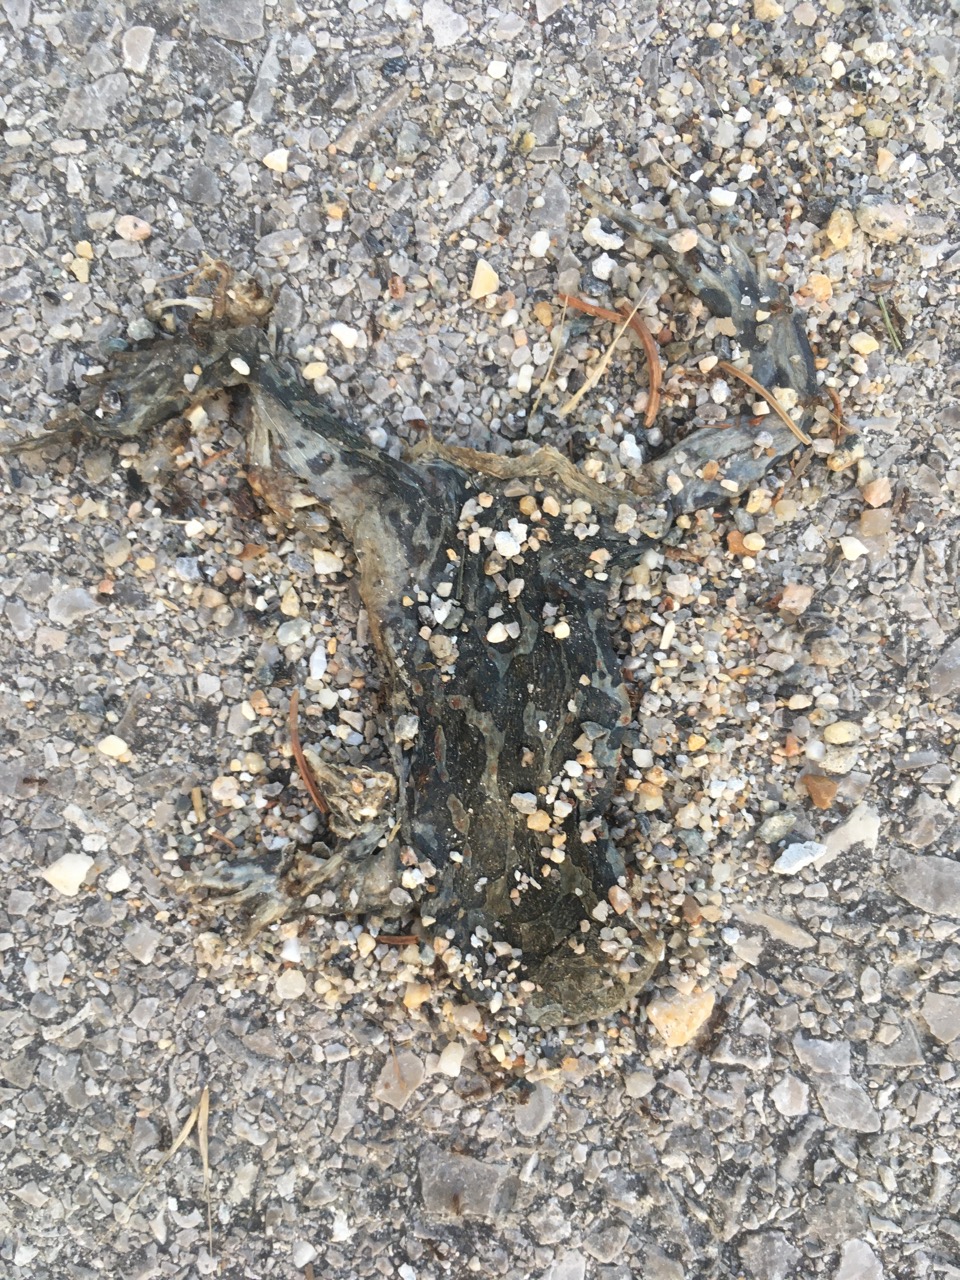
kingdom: Animalia
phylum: Chordata
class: Amphibia
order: Anura
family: Bufonidae
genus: Bufotes
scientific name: Bufotes viridis
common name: European green toad
